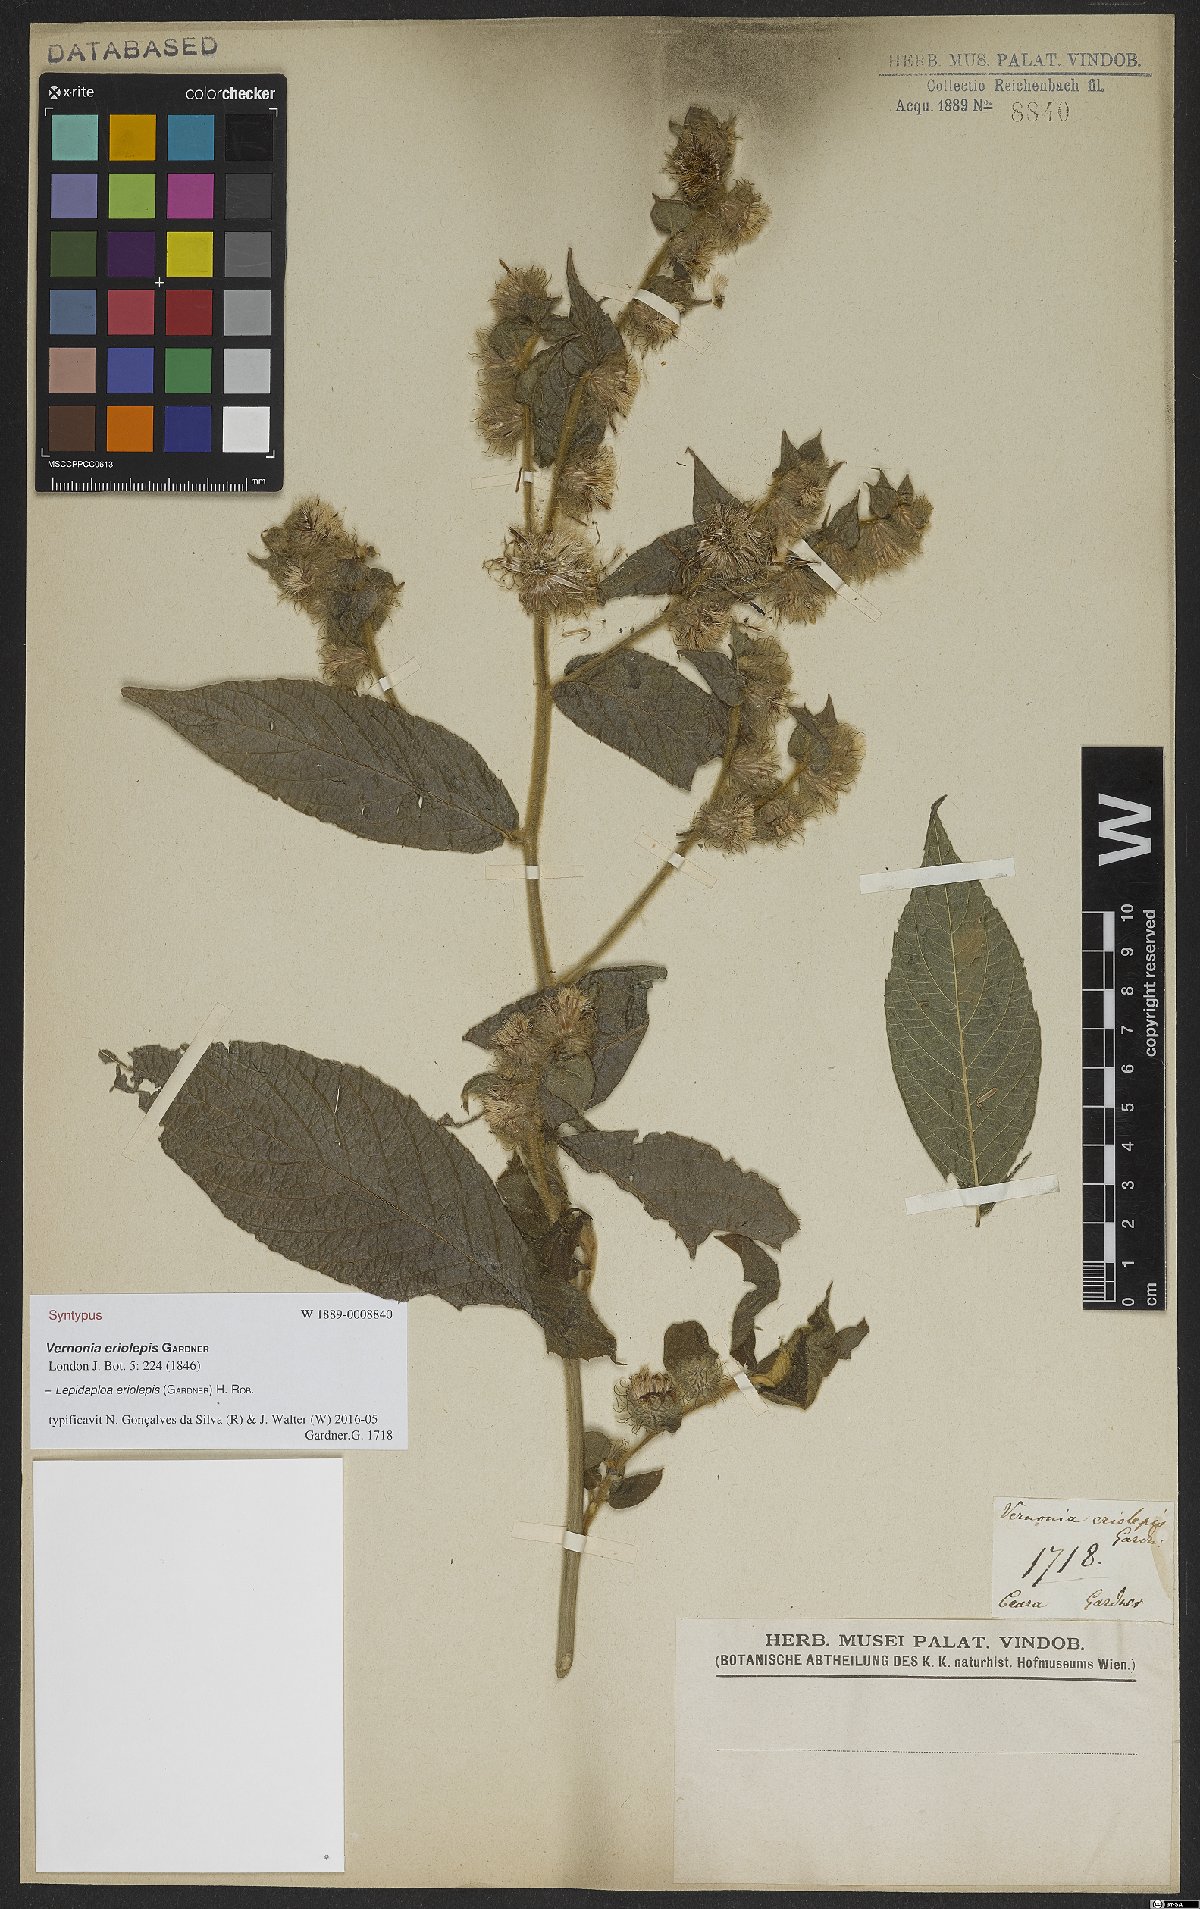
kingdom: Plantae
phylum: Tracheophyta
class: Magnoliopsida
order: Asterales
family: Asteraceae
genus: Lepidaploa
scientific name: Lepidaploa eriolepis
